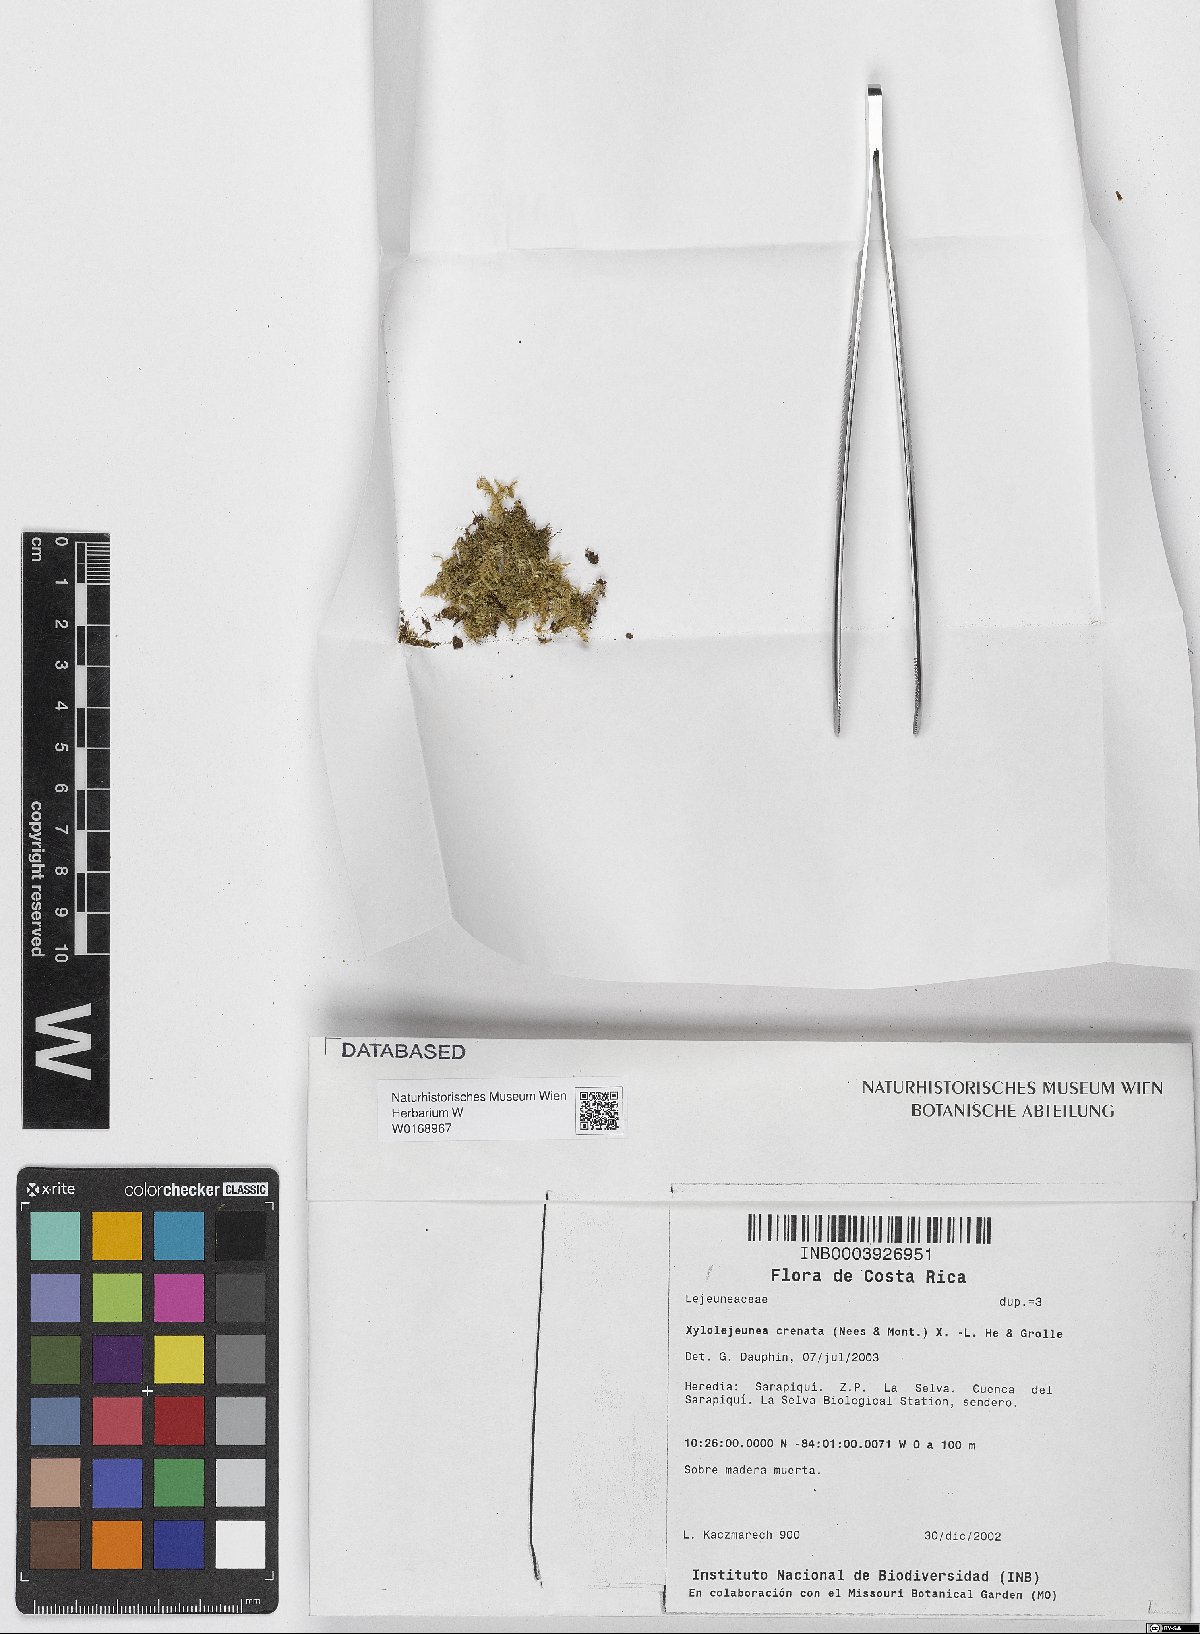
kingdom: Plantae
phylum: Marchantiophyta
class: Jungermanniopsida
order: Porellales
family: Lejeuneaceae
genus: Xylolejeunea
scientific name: Xylolejeunea crenata
